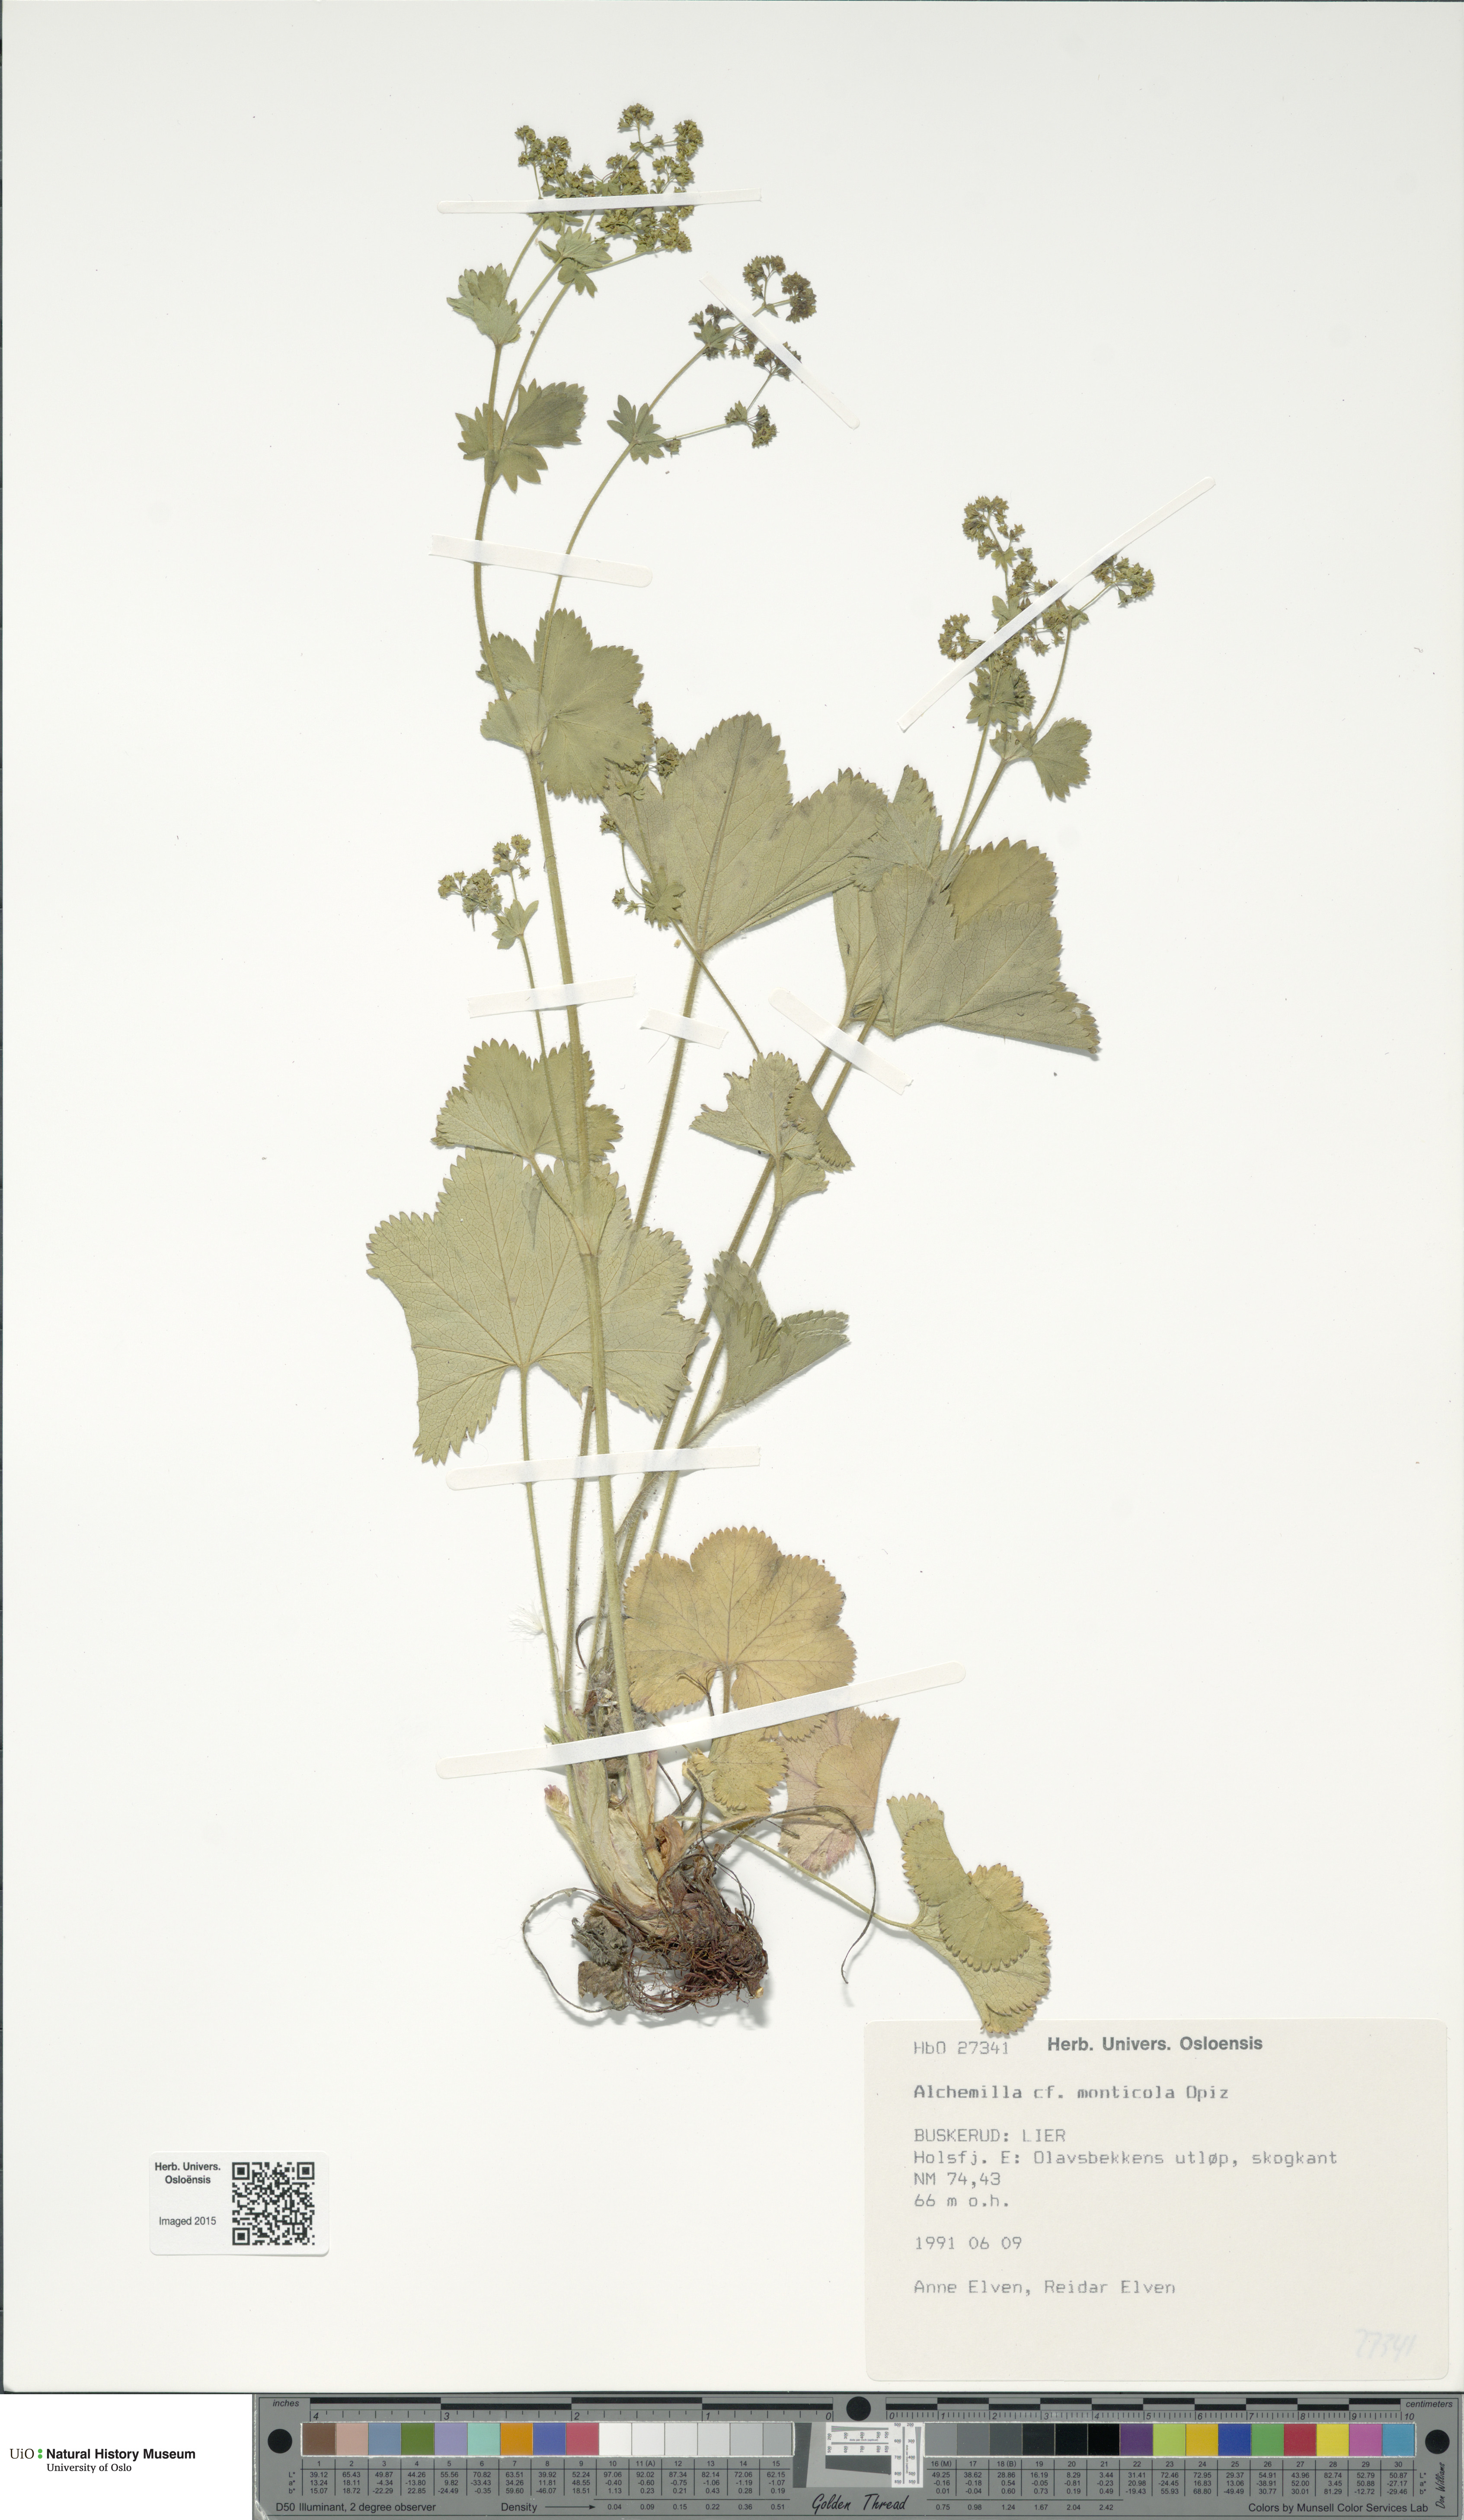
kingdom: Plantae
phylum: Tracheophyta
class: Magnoliopsida
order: Rosales
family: Rosaceae
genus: Alchemilla
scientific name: Alchemilla monticola
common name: Hairy lady's mantle
